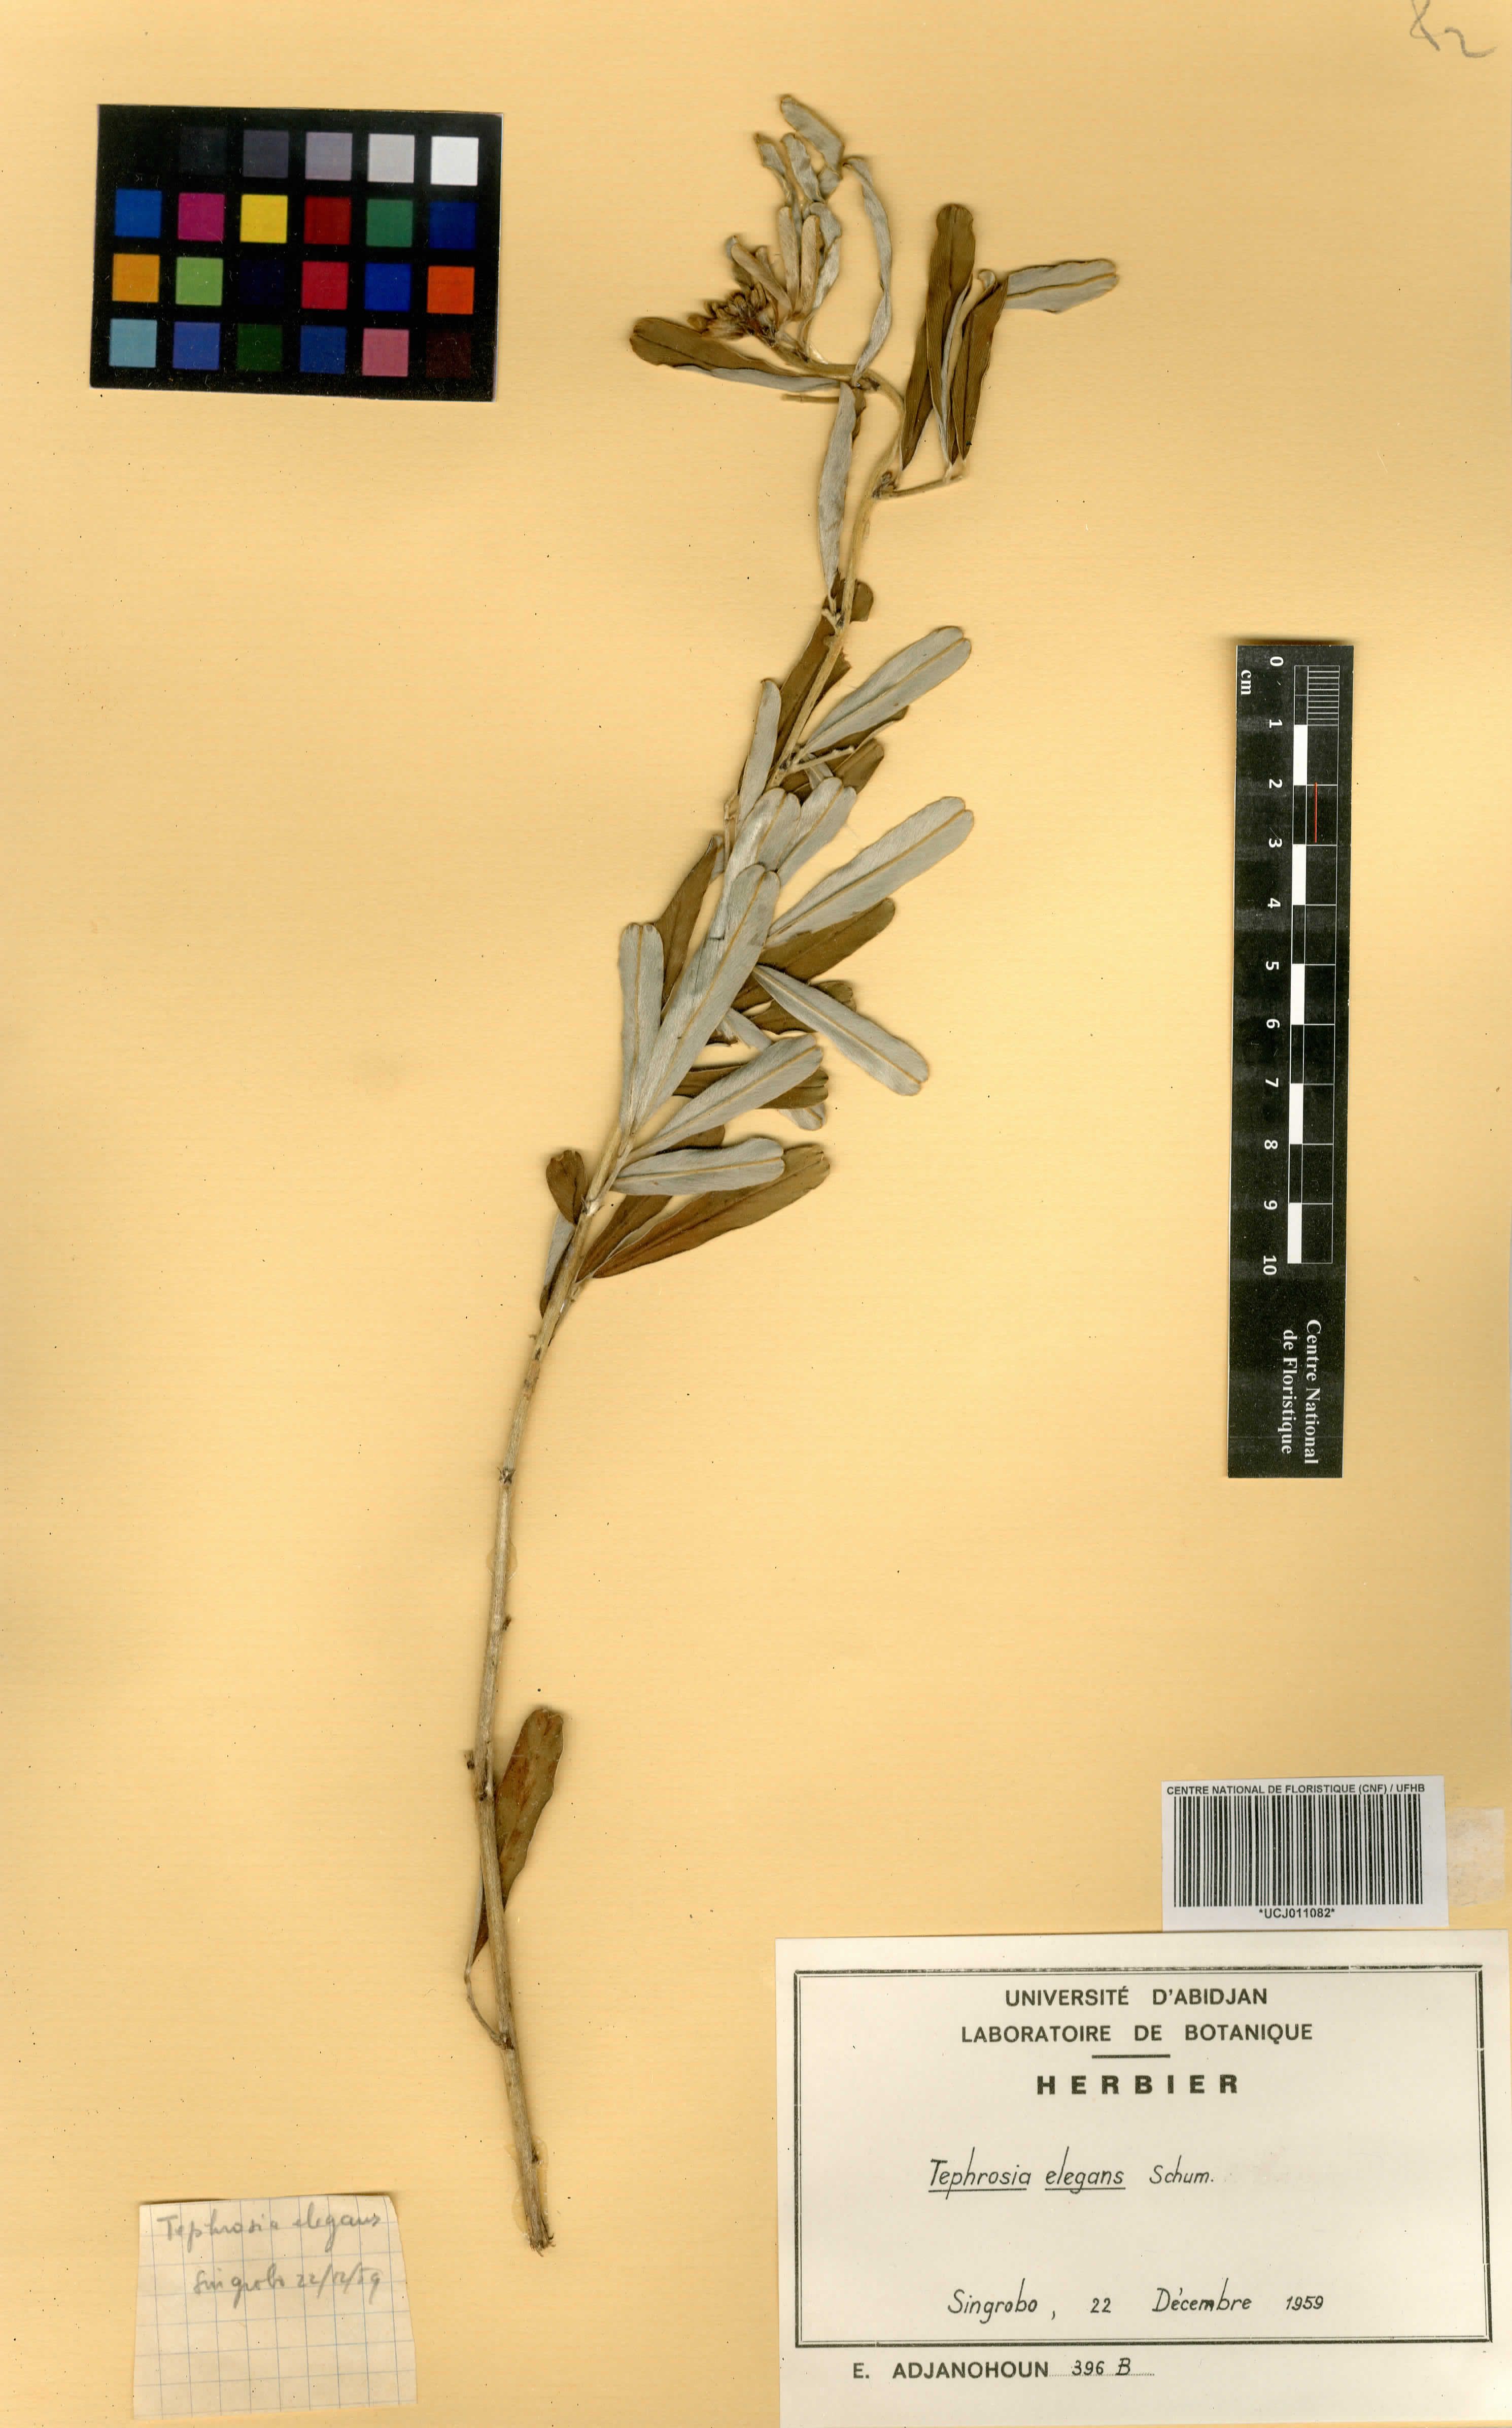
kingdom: Plantae
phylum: Tracheophyta
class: Magnoliopsida
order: Fabales
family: Fabaceae
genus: Tephrosia
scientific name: Tephrosia elegans
